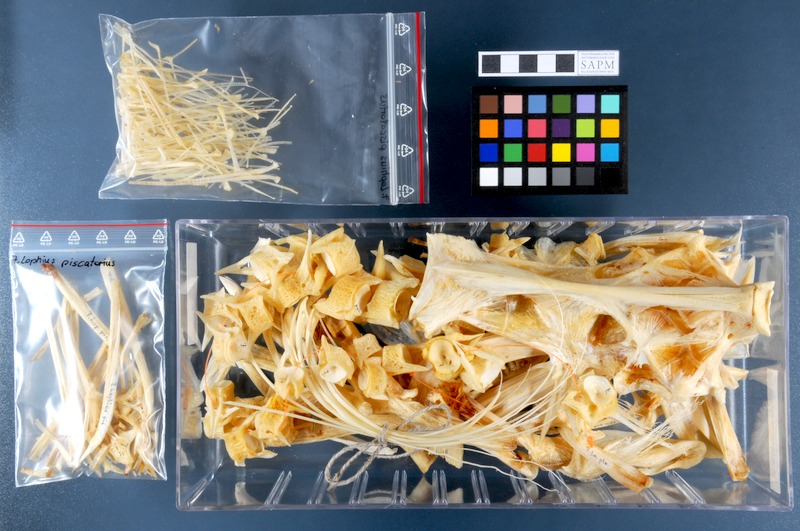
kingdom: Animalia
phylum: Chordata
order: Lophiiformes
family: Lophiidae
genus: Lophius
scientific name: Lophius piscatorius
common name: Angler
